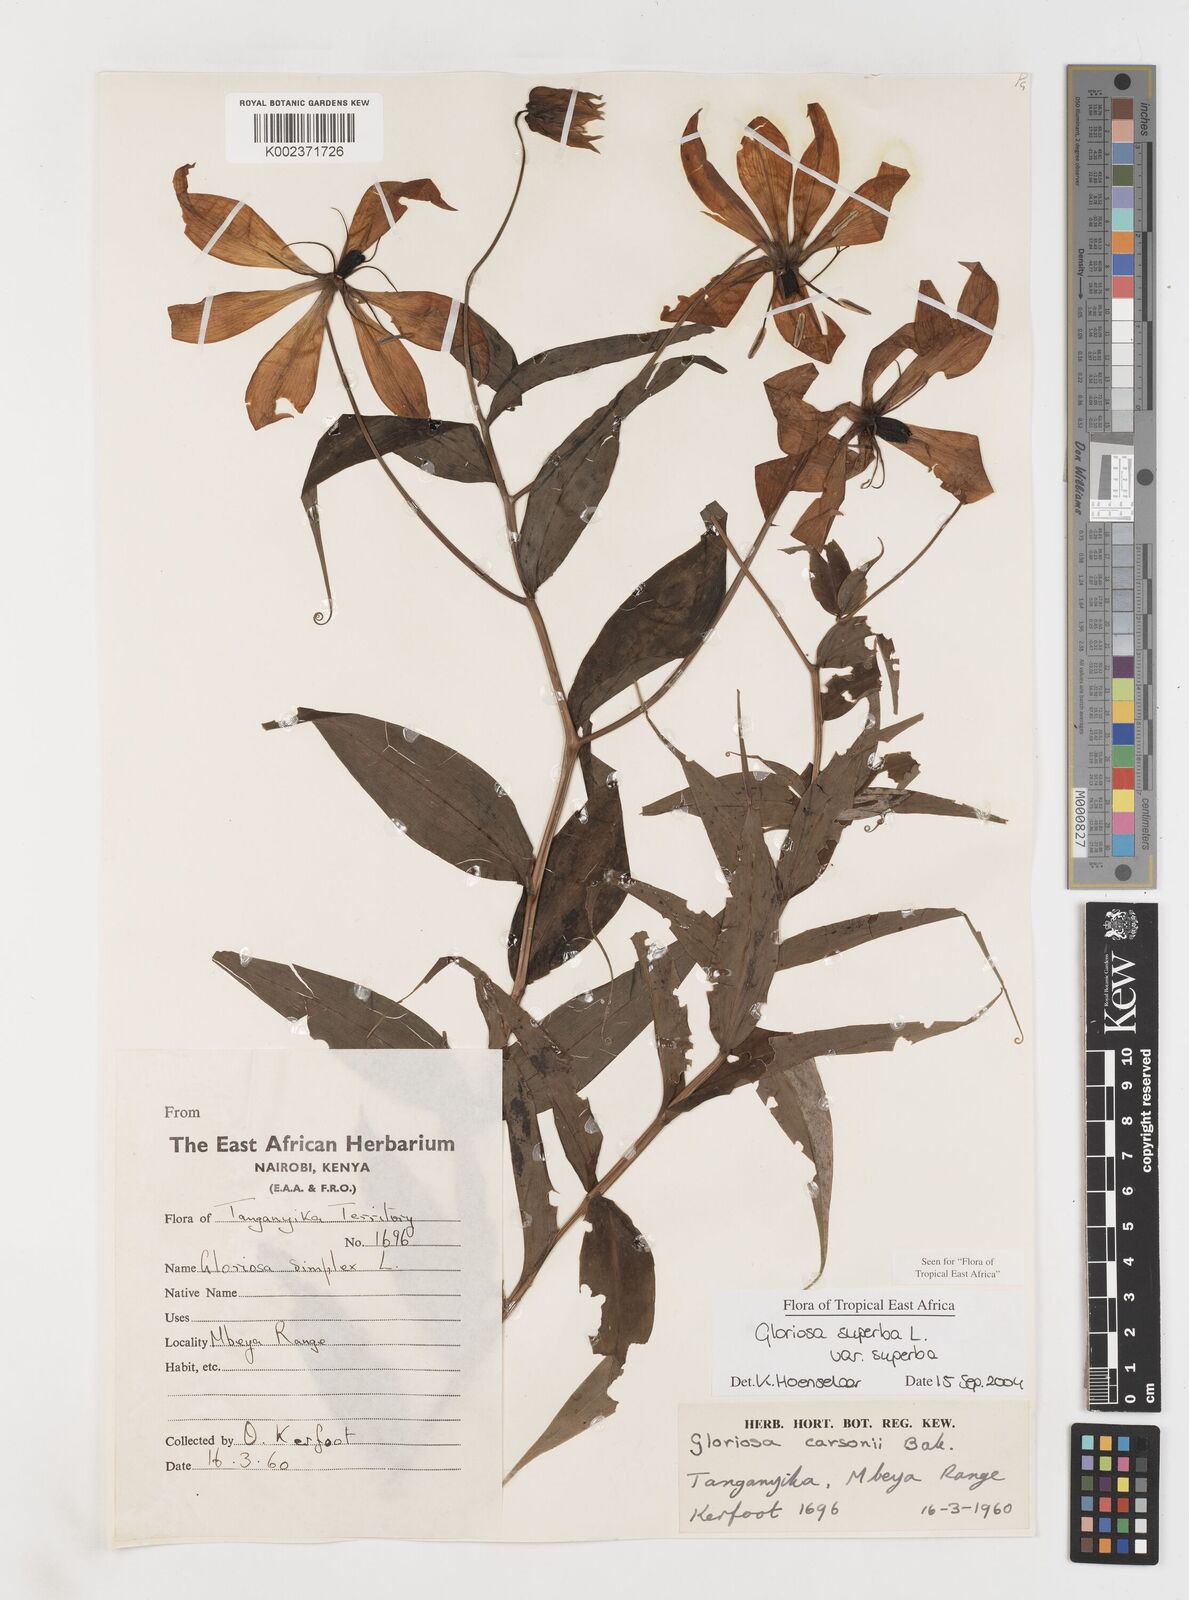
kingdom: Plantae
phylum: Tracheophyta
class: Liliopsida
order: Liliales
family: Colchicaceae
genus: Gloriosa
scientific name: Gloriosa simplex
